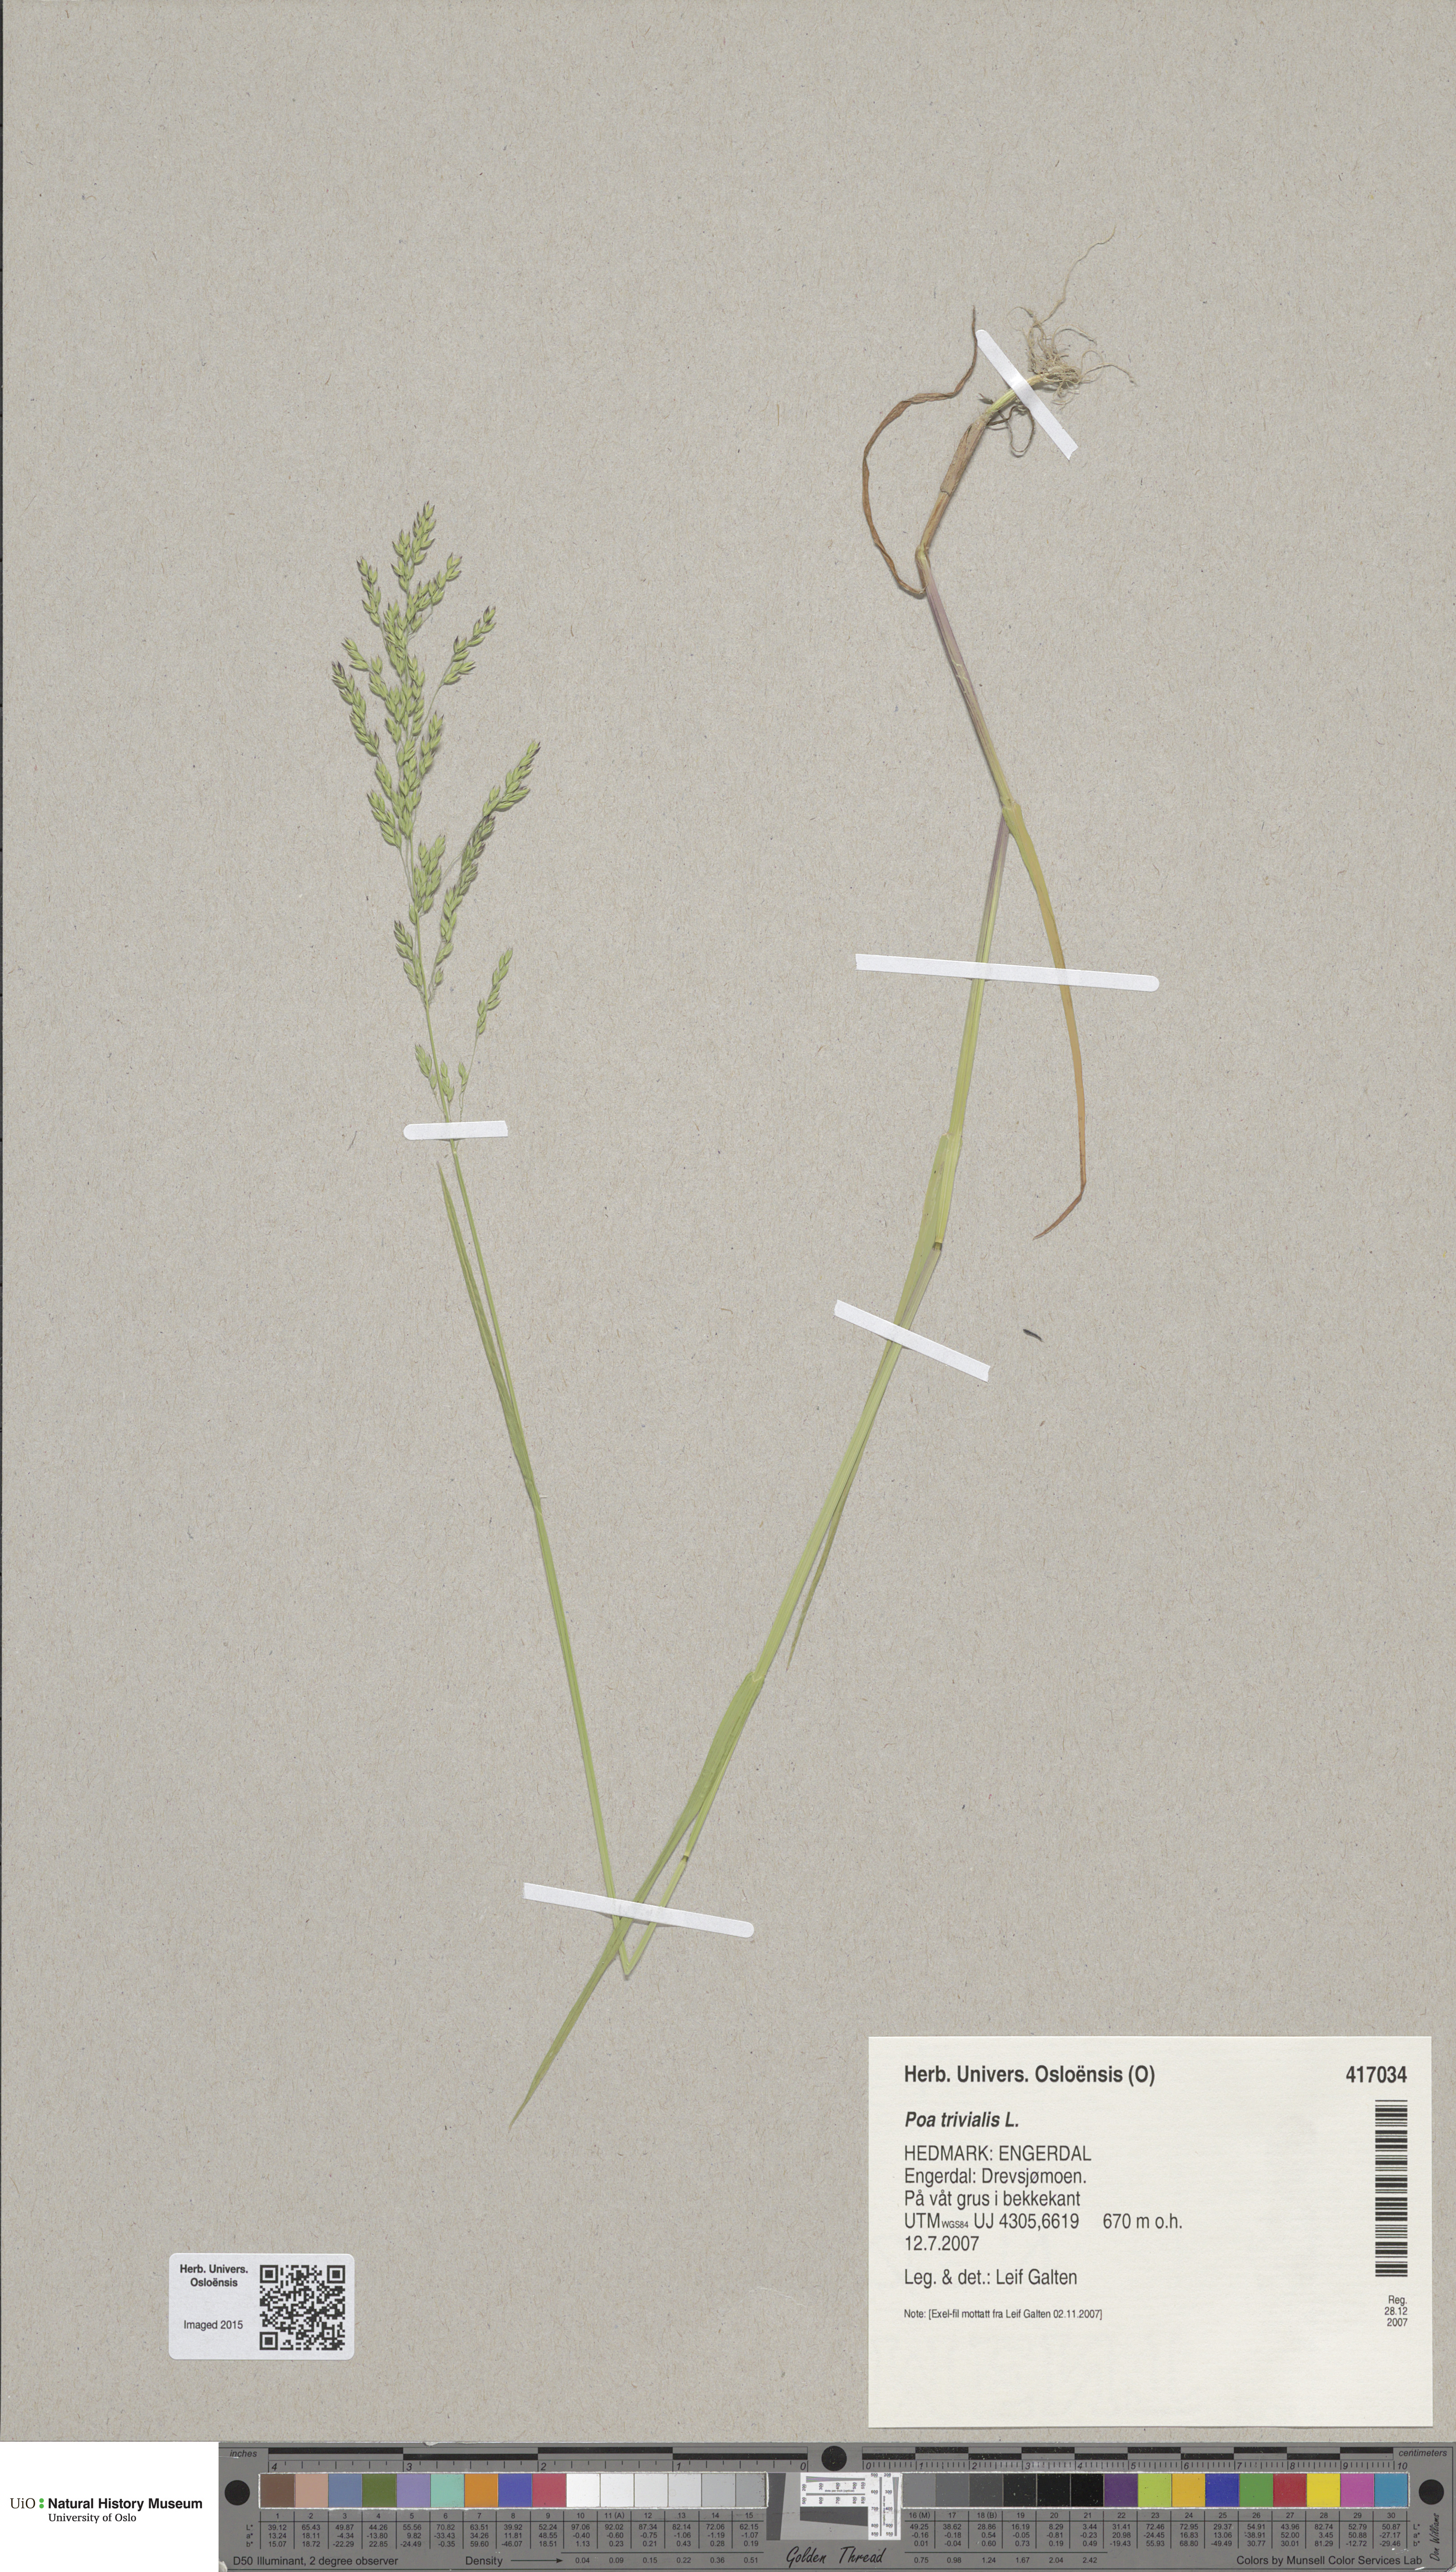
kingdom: Plantae
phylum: Tracheophyta
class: Liliopsida
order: Poales
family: Poaceae
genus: Poa
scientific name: Poa trivialis
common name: Rough bluegrass
